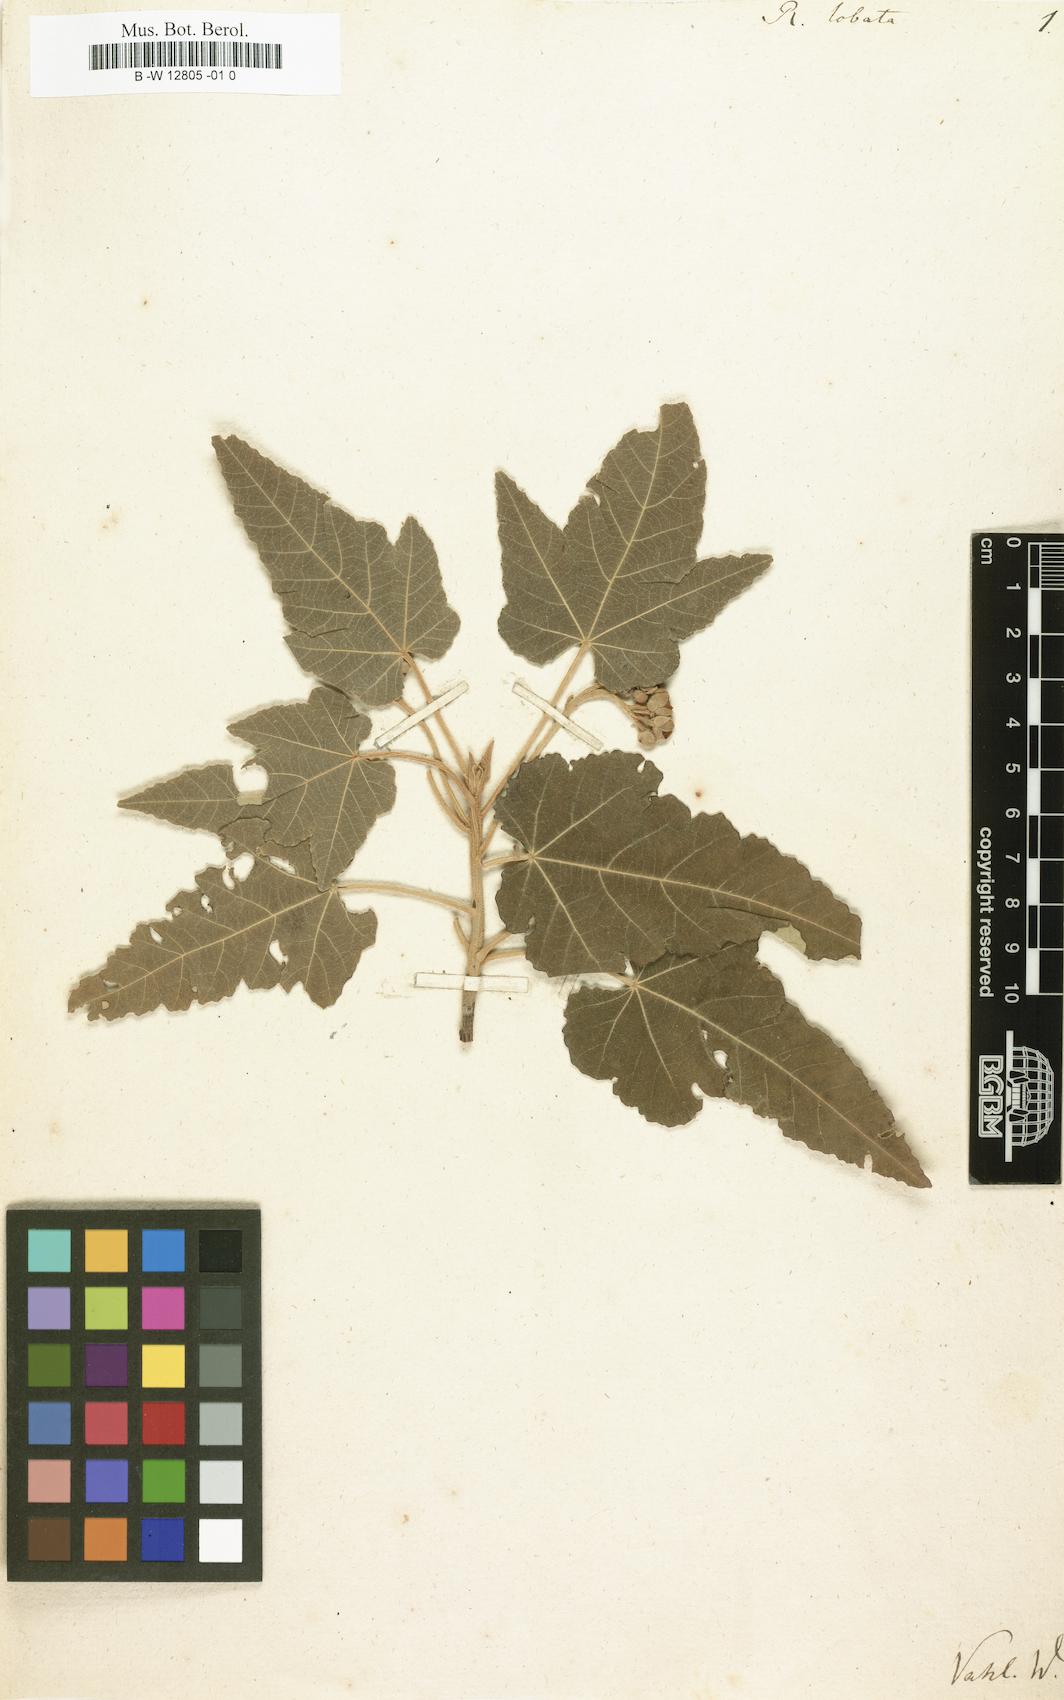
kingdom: Plantae
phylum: Tracheophyta
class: Magnoliopsida
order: Malvales
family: Malvaceae
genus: Ruizia
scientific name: Ruizia cordata
